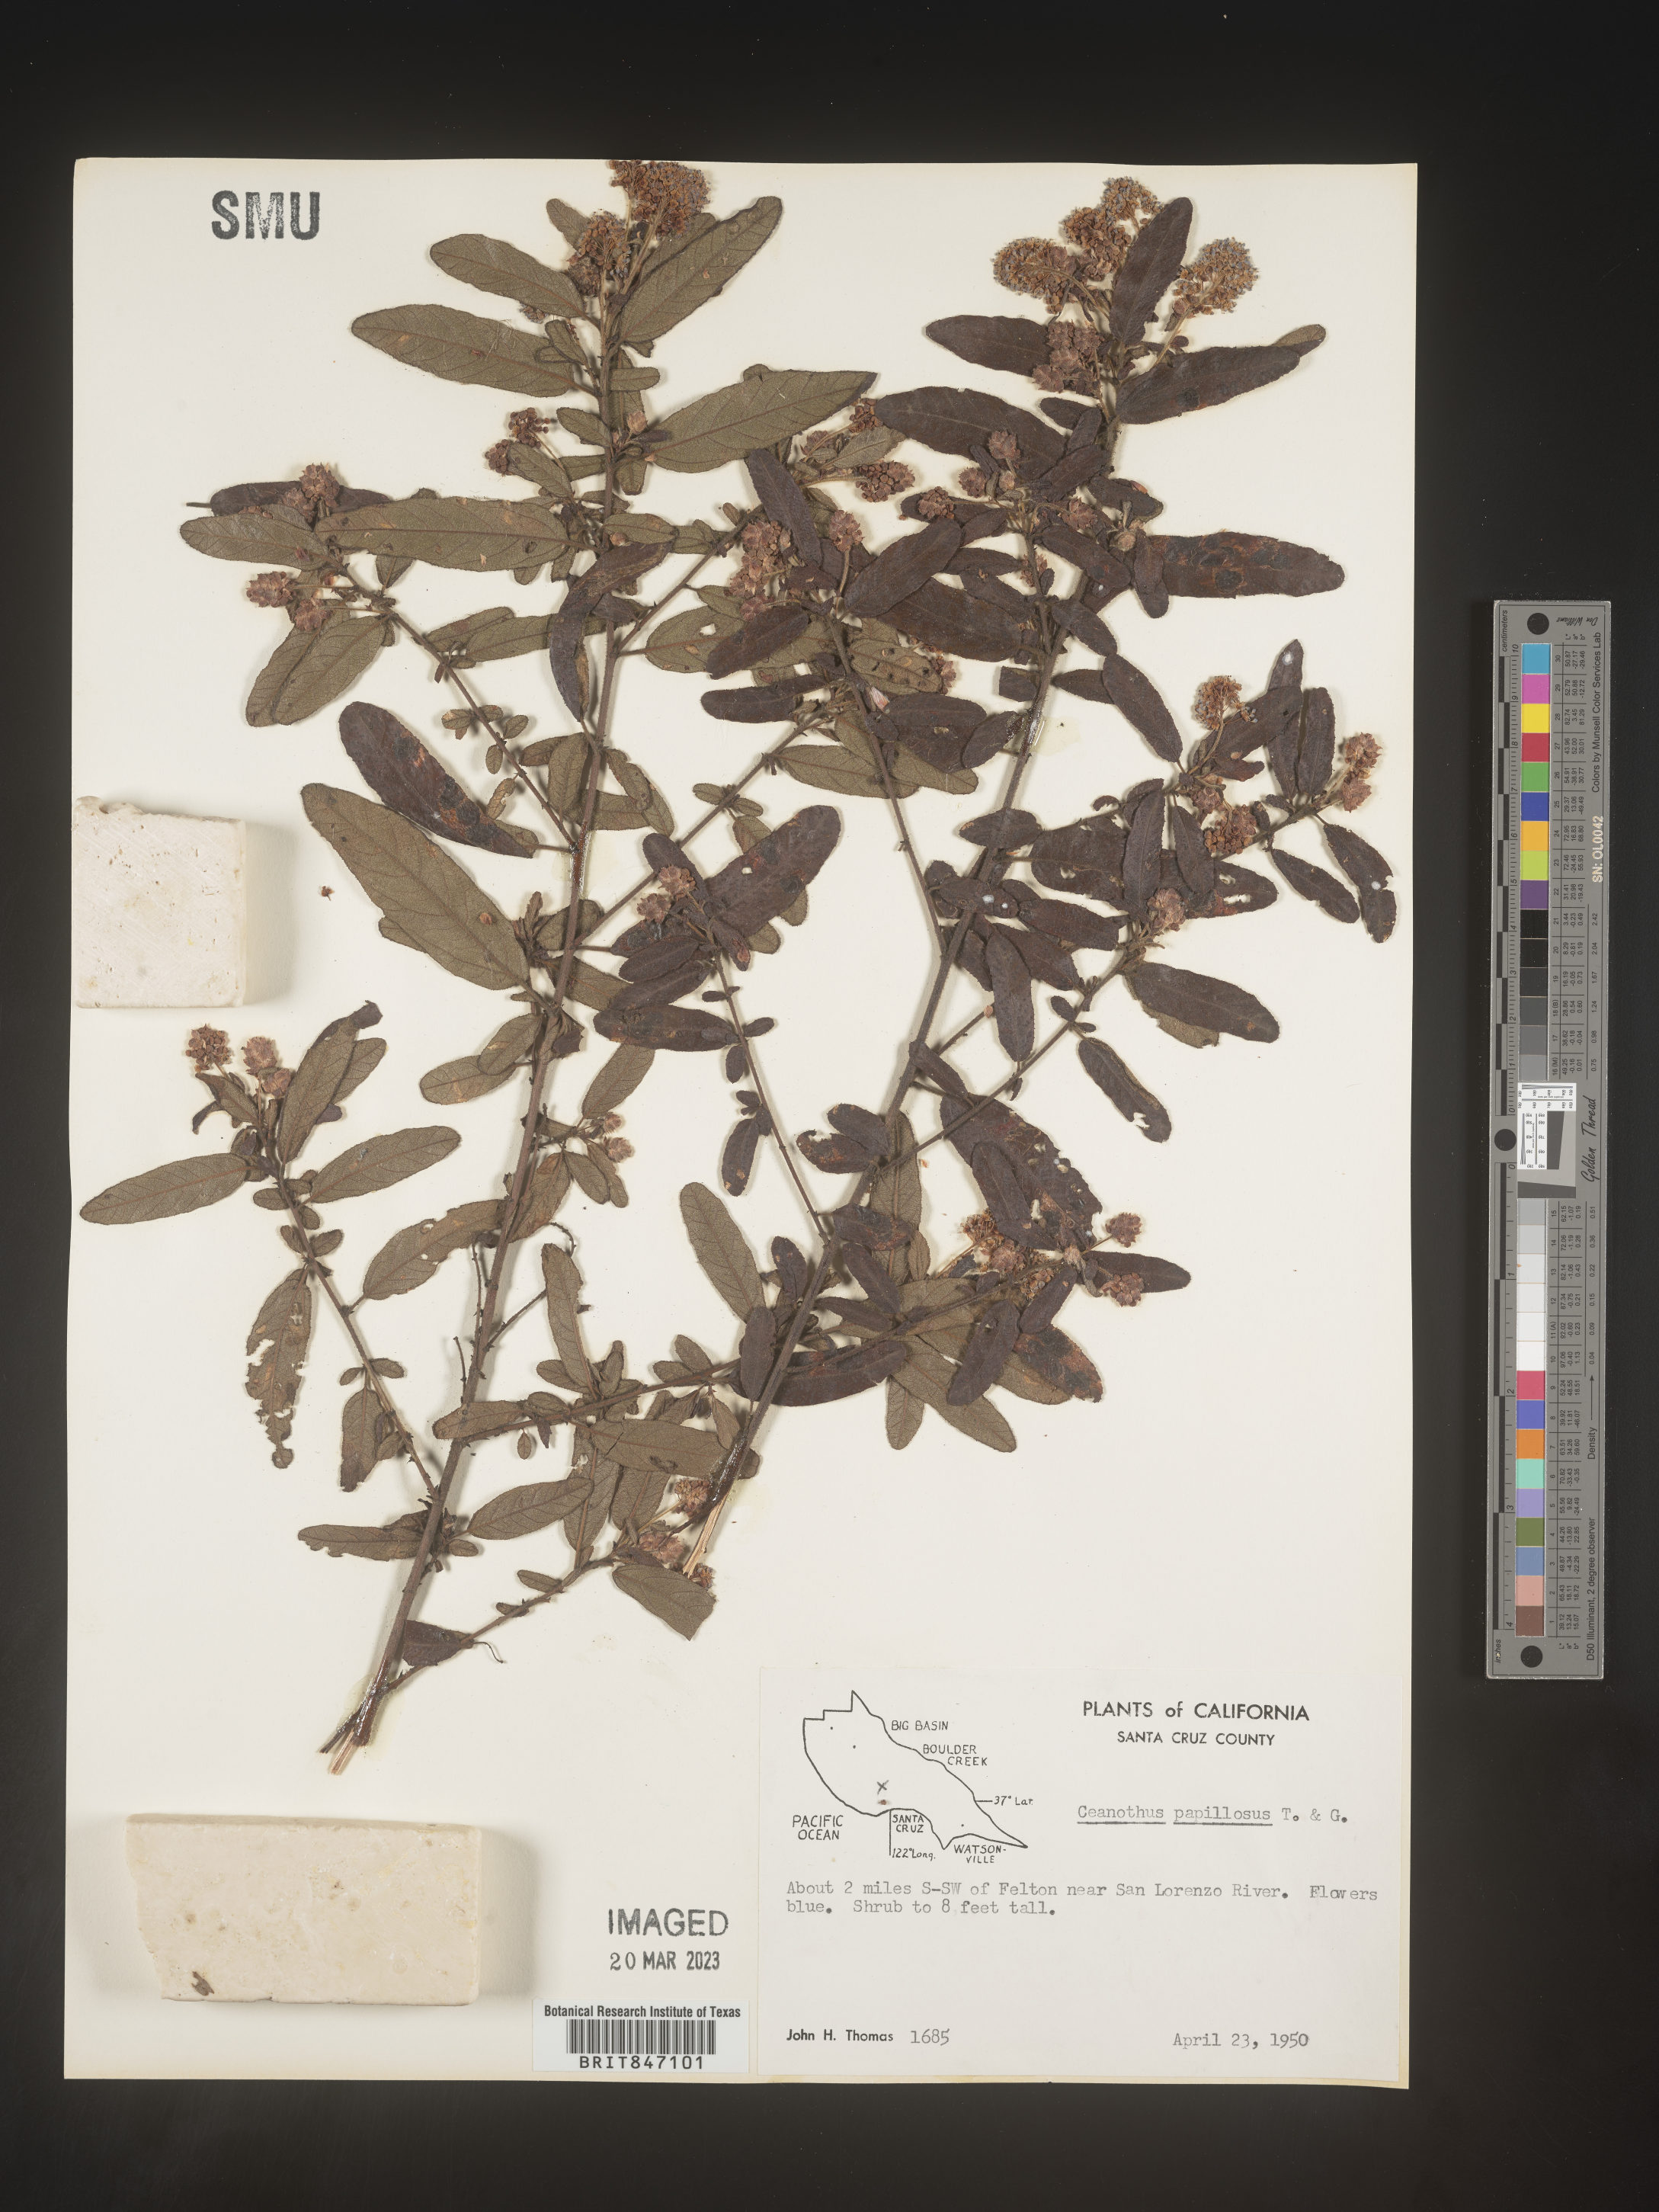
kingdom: Plantae
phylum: Tracheophyta
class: Magnoliopsida
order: Rosales
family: Rhamnaceae
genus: Ceanothus
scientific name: Ceanothus
